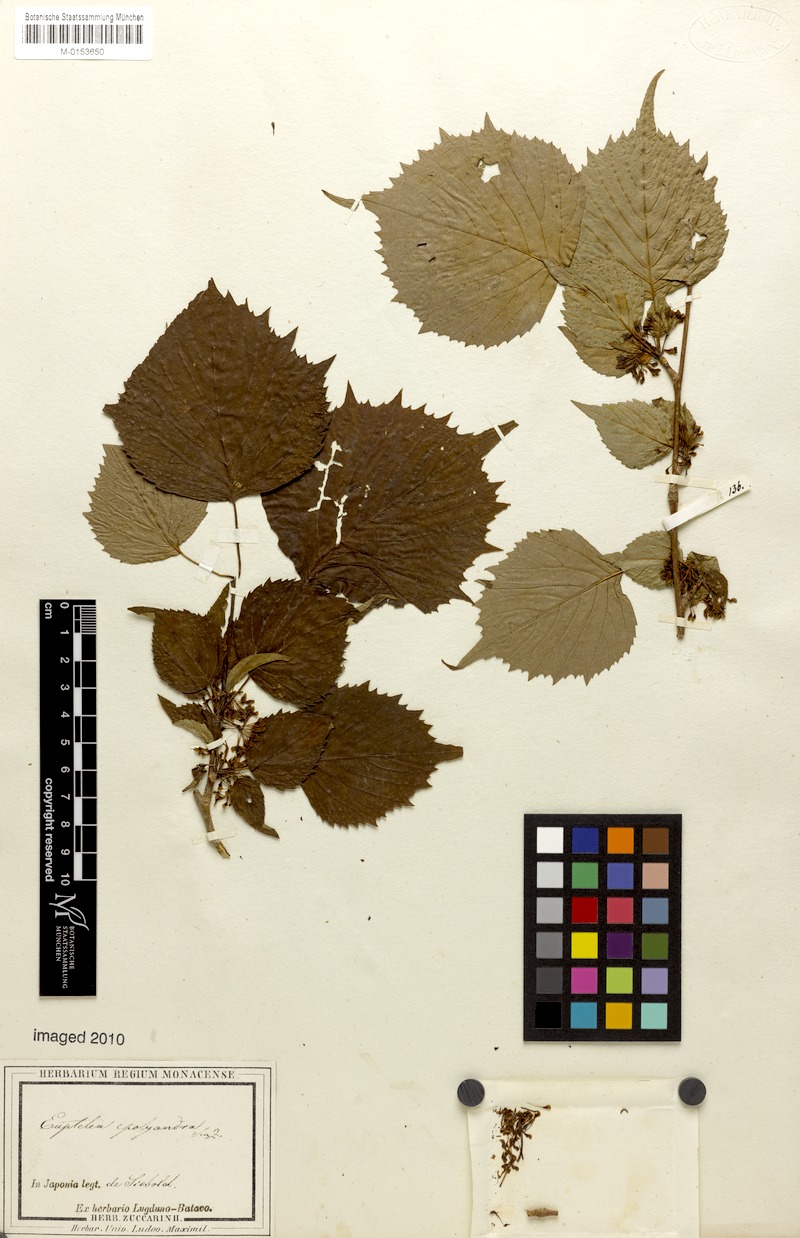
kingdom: Plantae
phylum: Tracheophyta
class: Magnoliopsida
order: Ranunculales
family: Eupteleaceae
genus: Euptelea
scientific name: Euptelea polyandra
